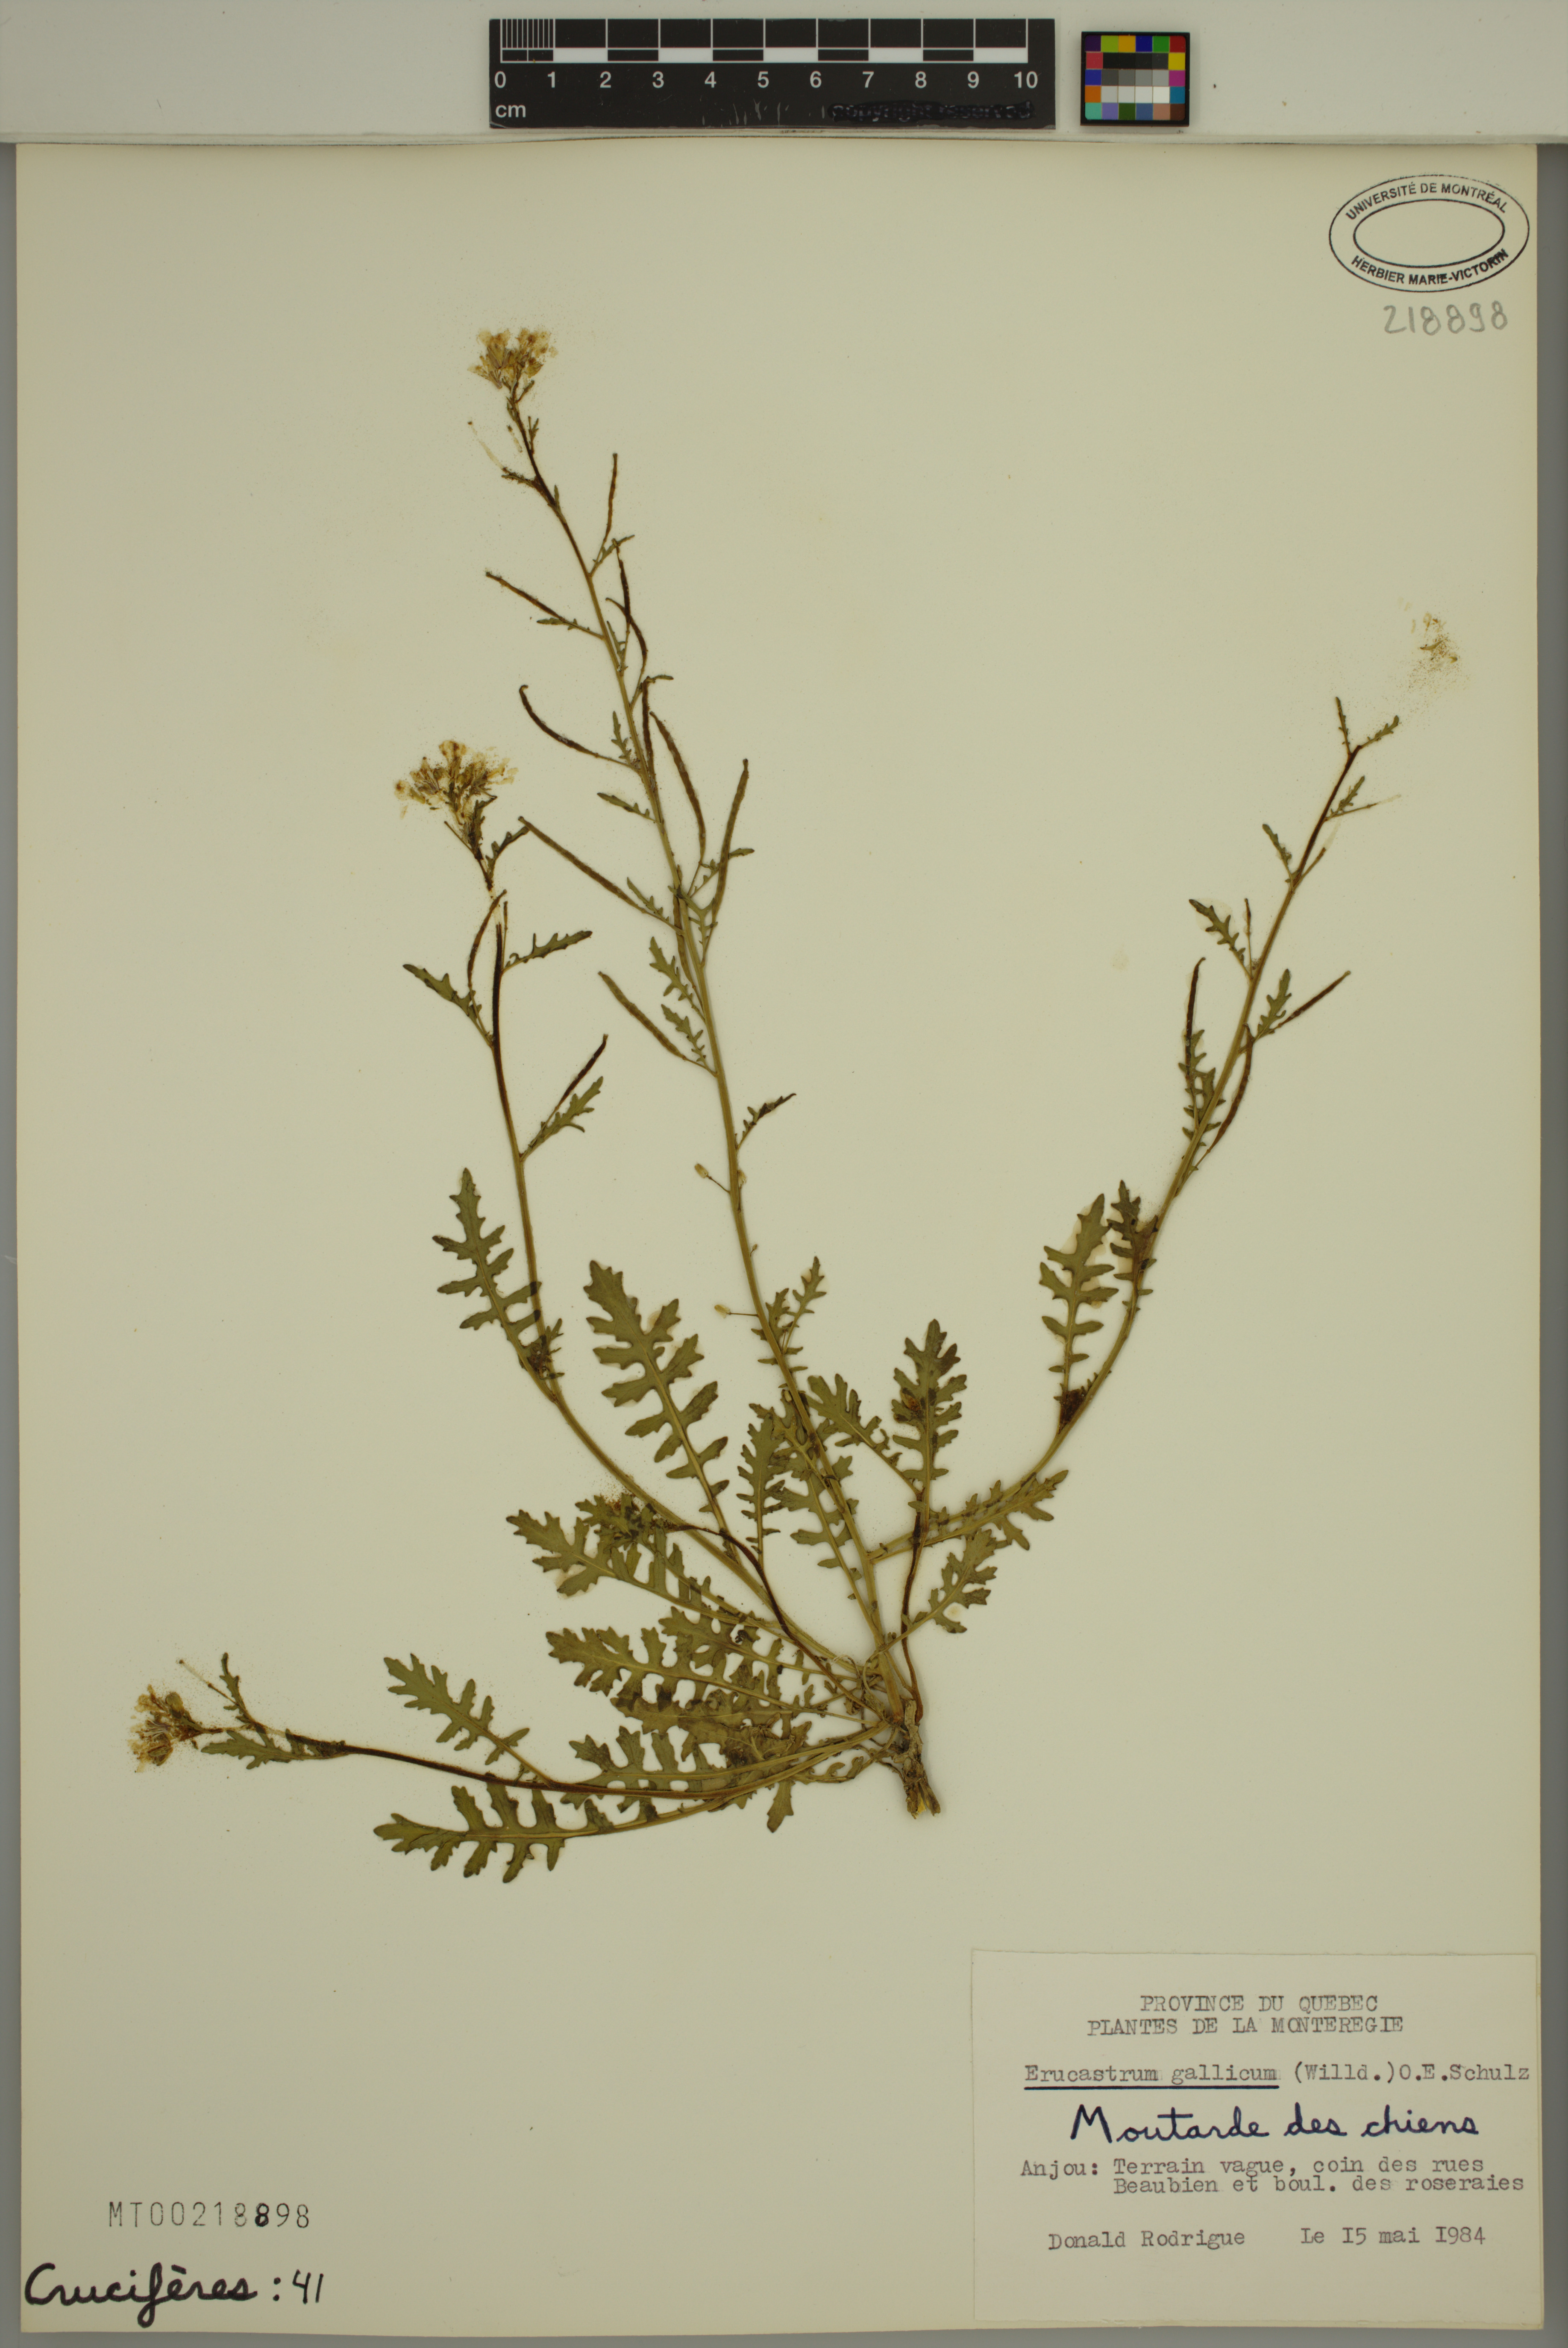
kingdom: Plantae
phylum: Tracheophyta
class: Magnoliopsida
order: Brassicales
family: Brassicaceae
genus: Erucastrum
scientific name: Erucastrum gallicum
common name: Hairy rocket
